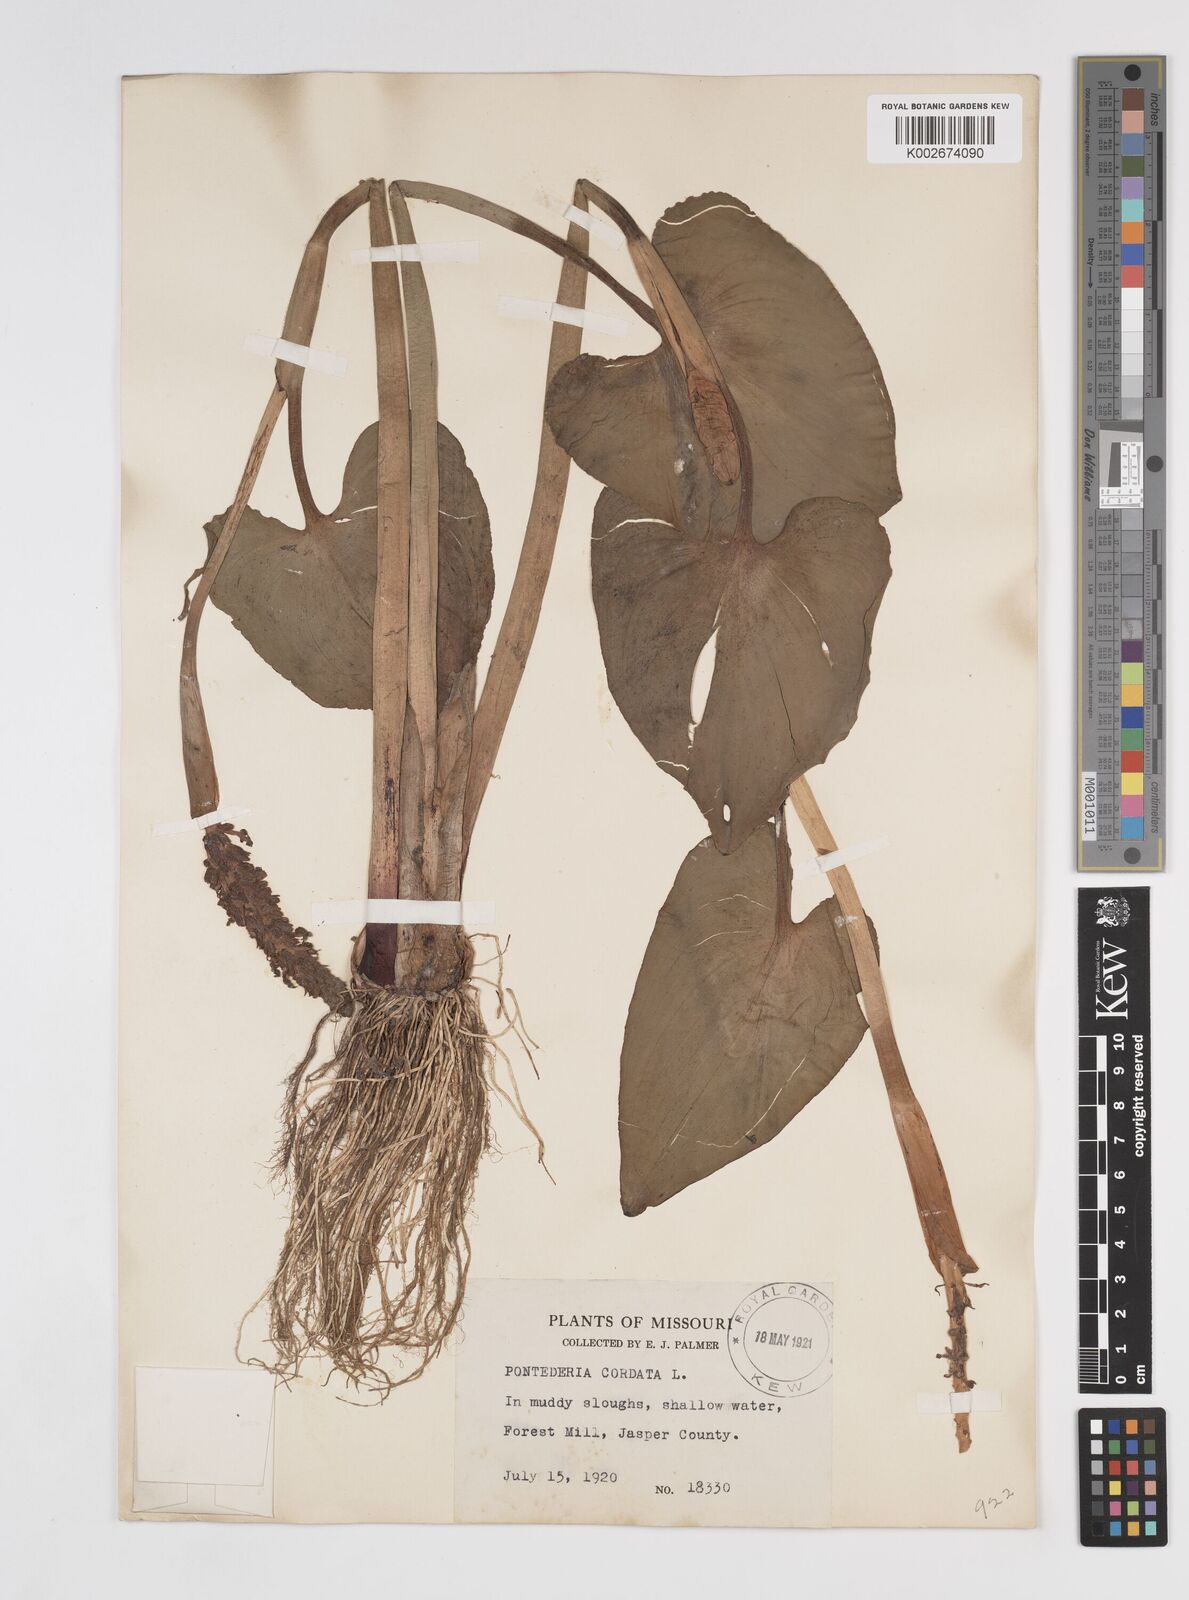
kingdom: Plantae
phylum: Tracheophyta
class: Liliopsida
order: Commelinales
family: Pontederiaceae
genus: Pontederia
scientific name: Pontederia cordata
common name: Pickerelweed
